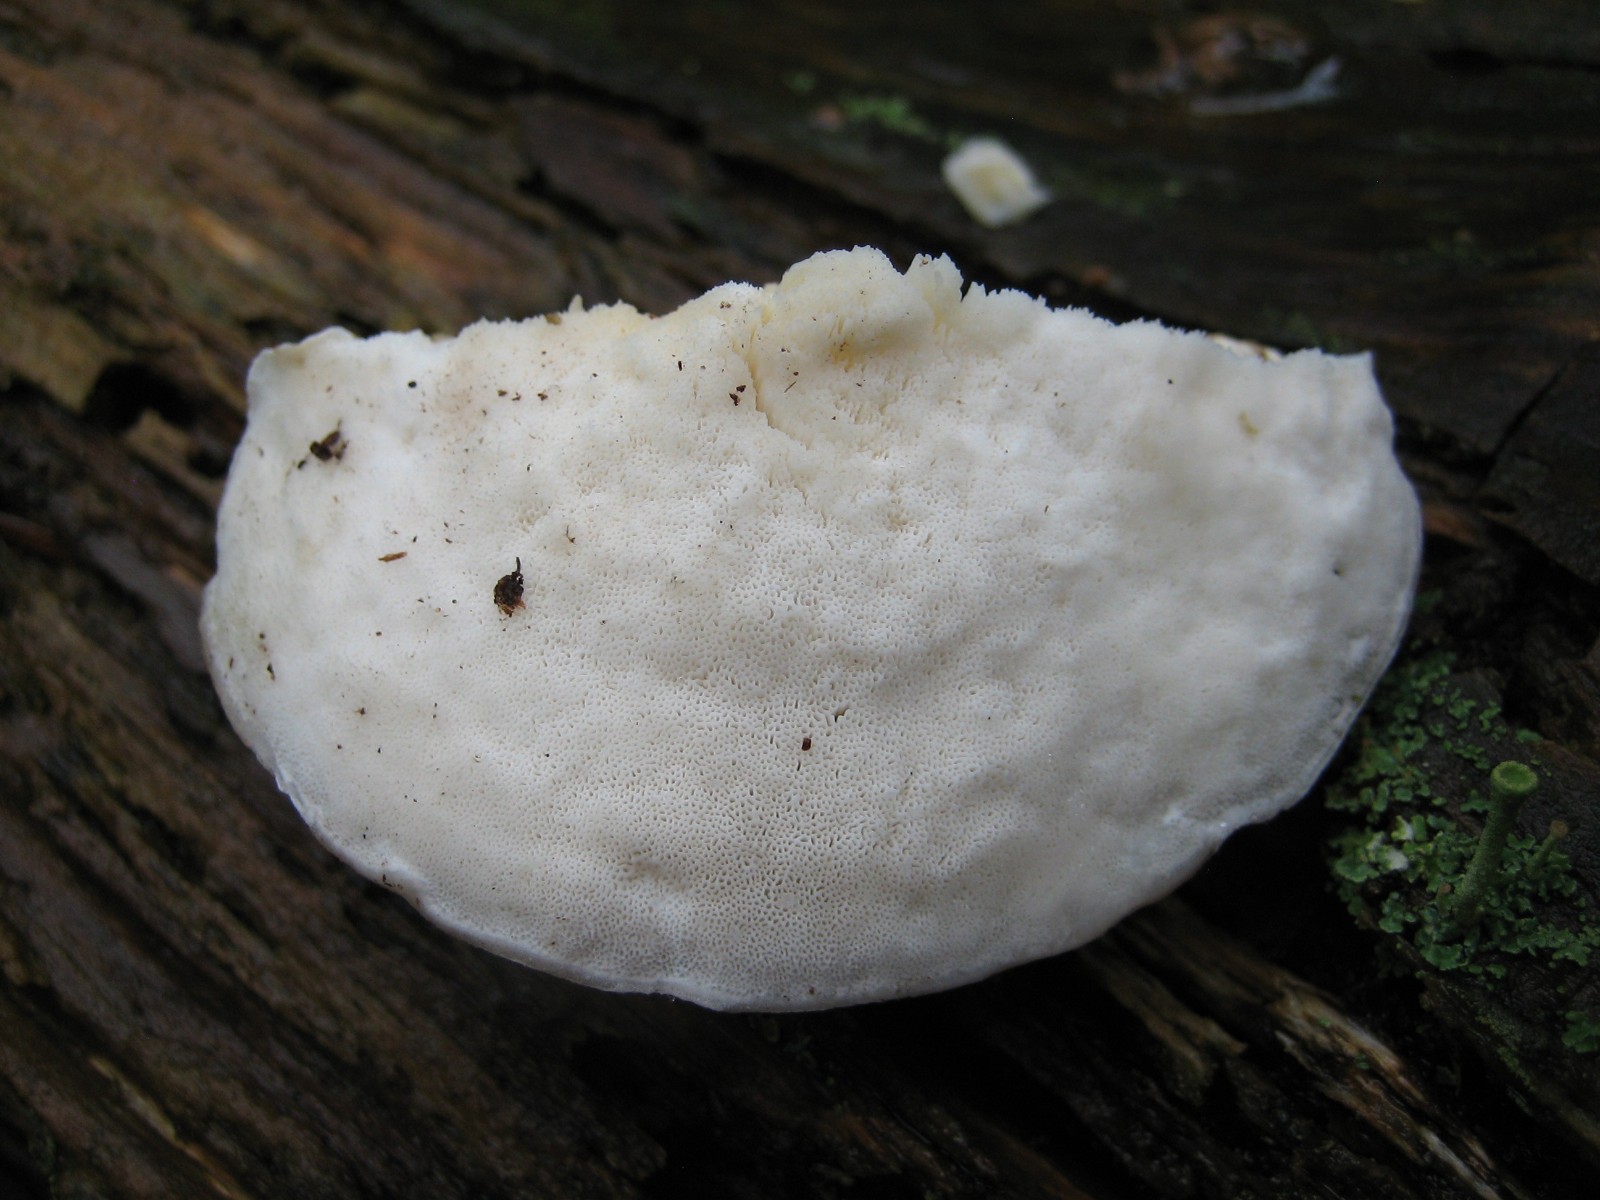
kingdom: Fungi
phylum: Basidiomycota
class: Agaricomycetes
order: Polyporales
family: Incrustoporiaceae
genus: Tyromyces
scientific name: Tyromyces lacteus
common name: mælkehvid kødporesvamp
